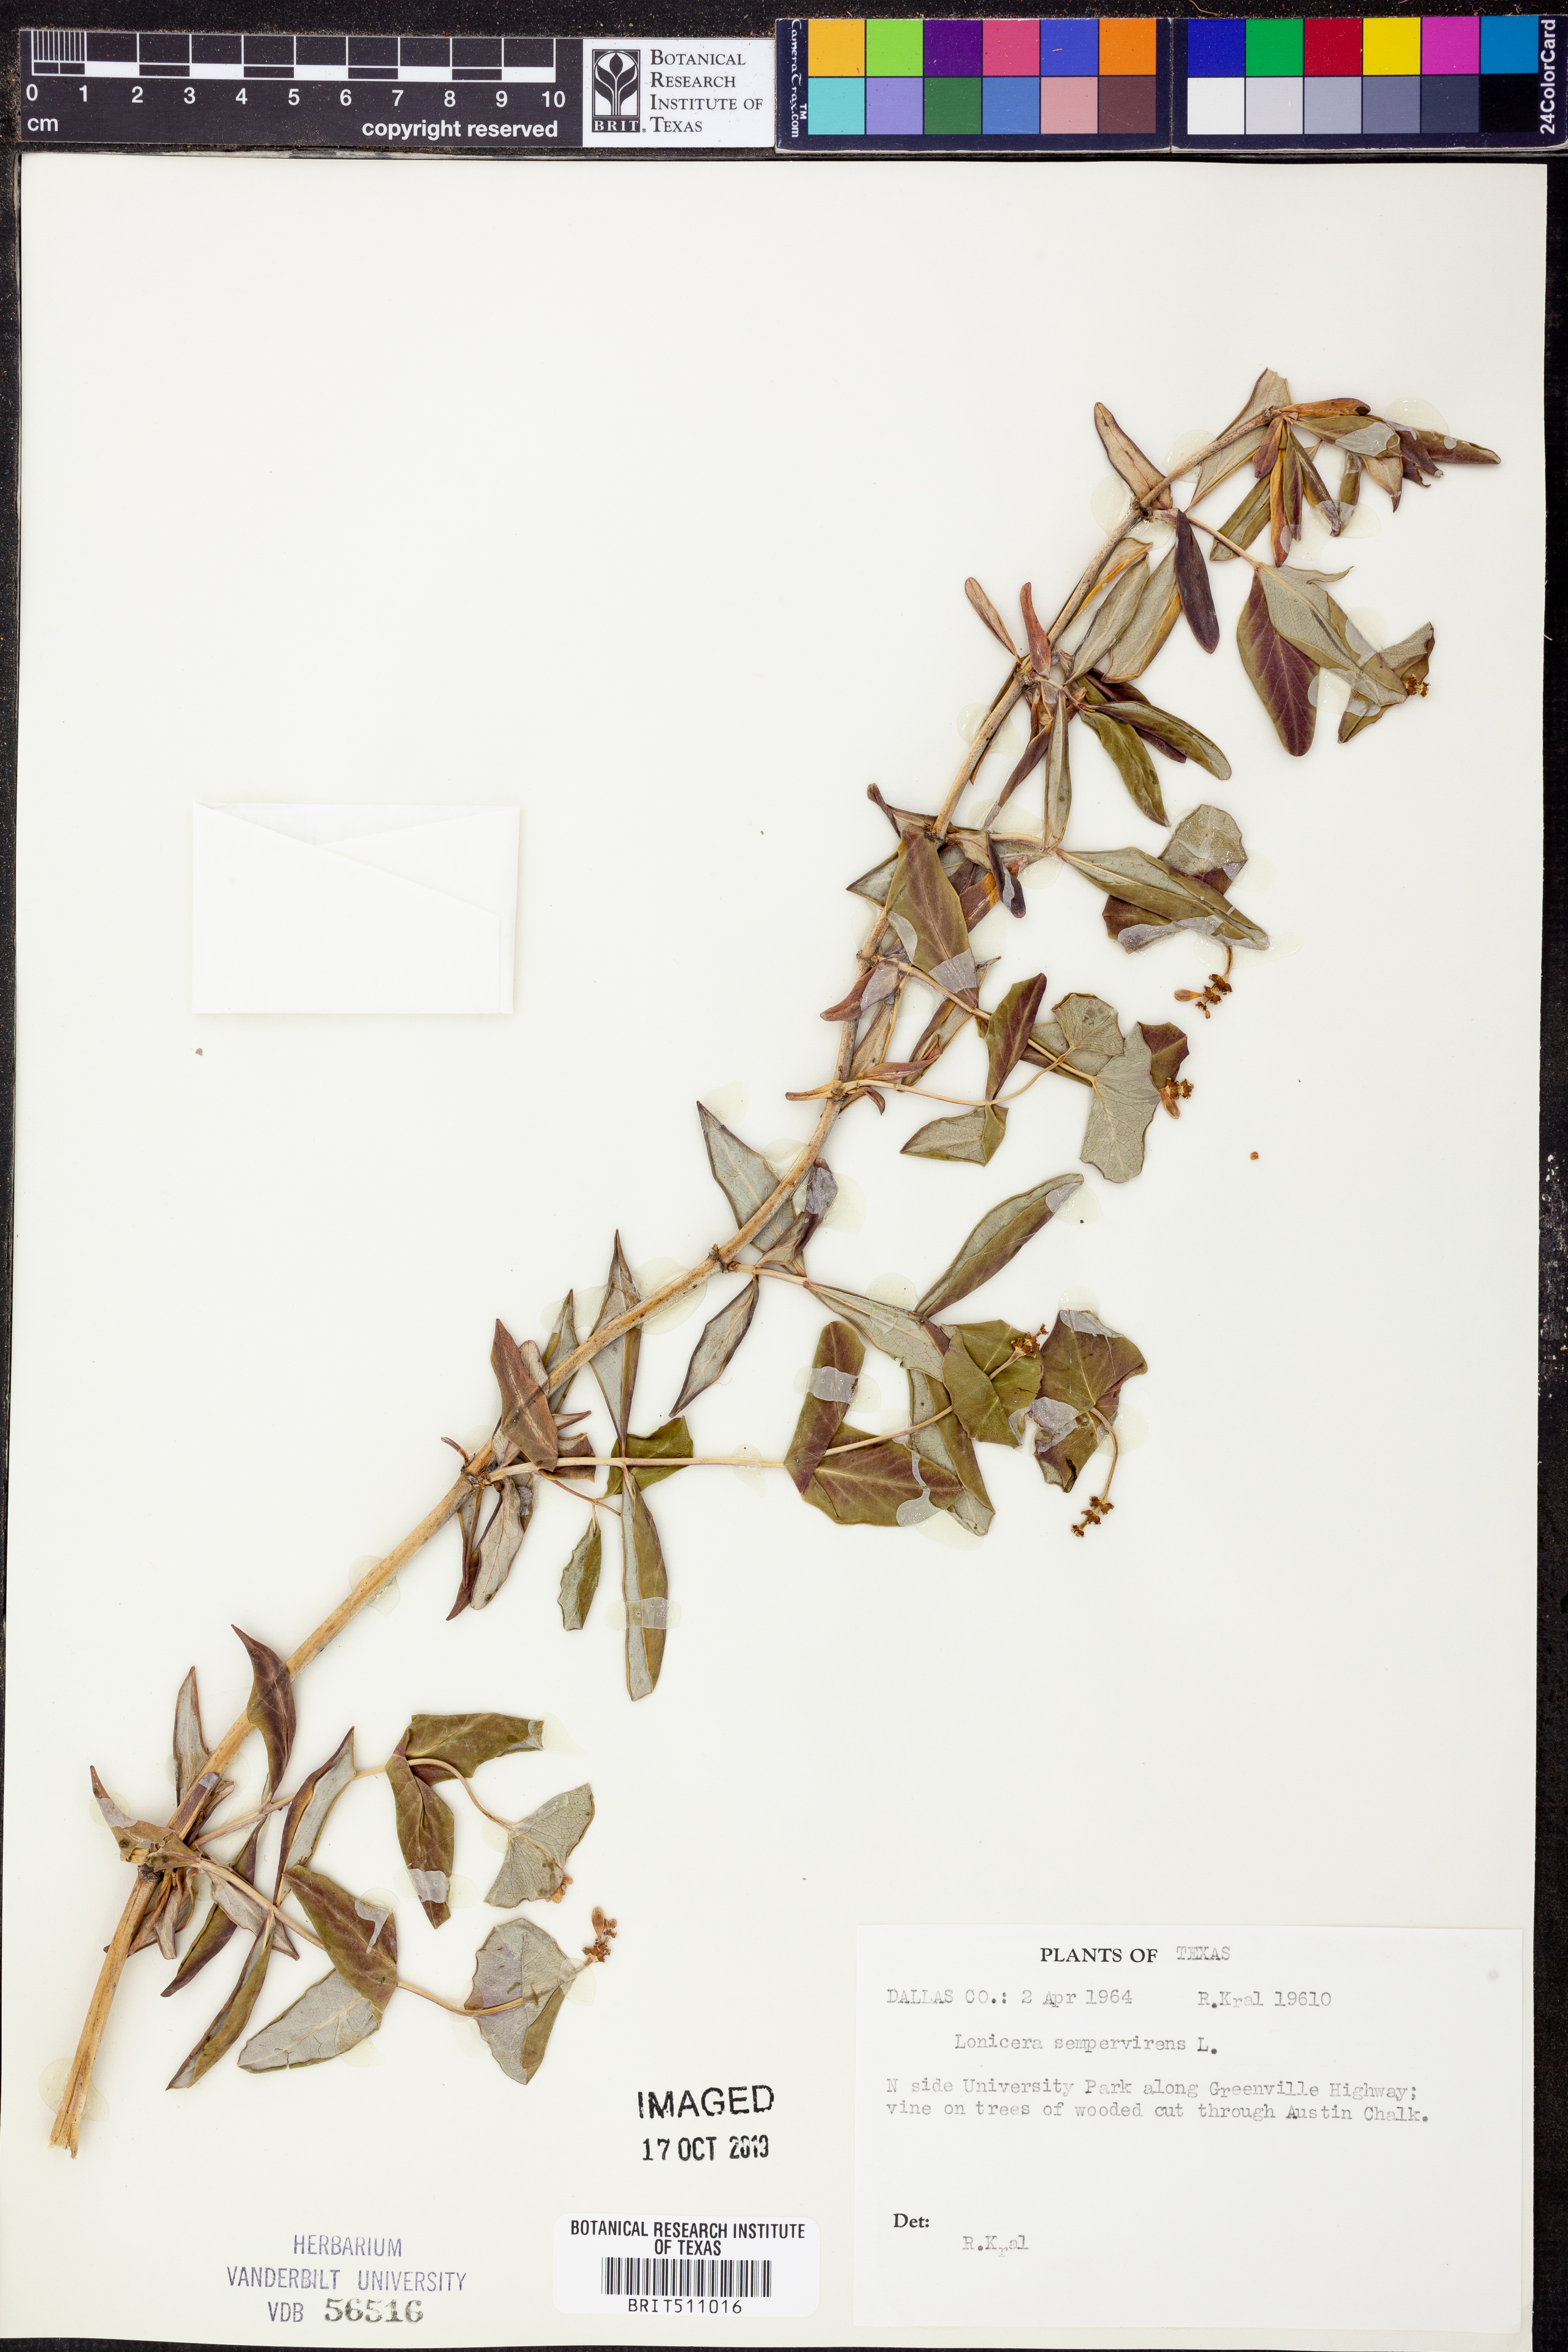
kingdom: Plantae
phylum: Tracheophyta
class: Magnoliopsida
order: Dipsacales
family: Caprifoliaceae
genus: Lonicera
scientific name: Lonicera sempervirens
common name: Coral honeysuckle
